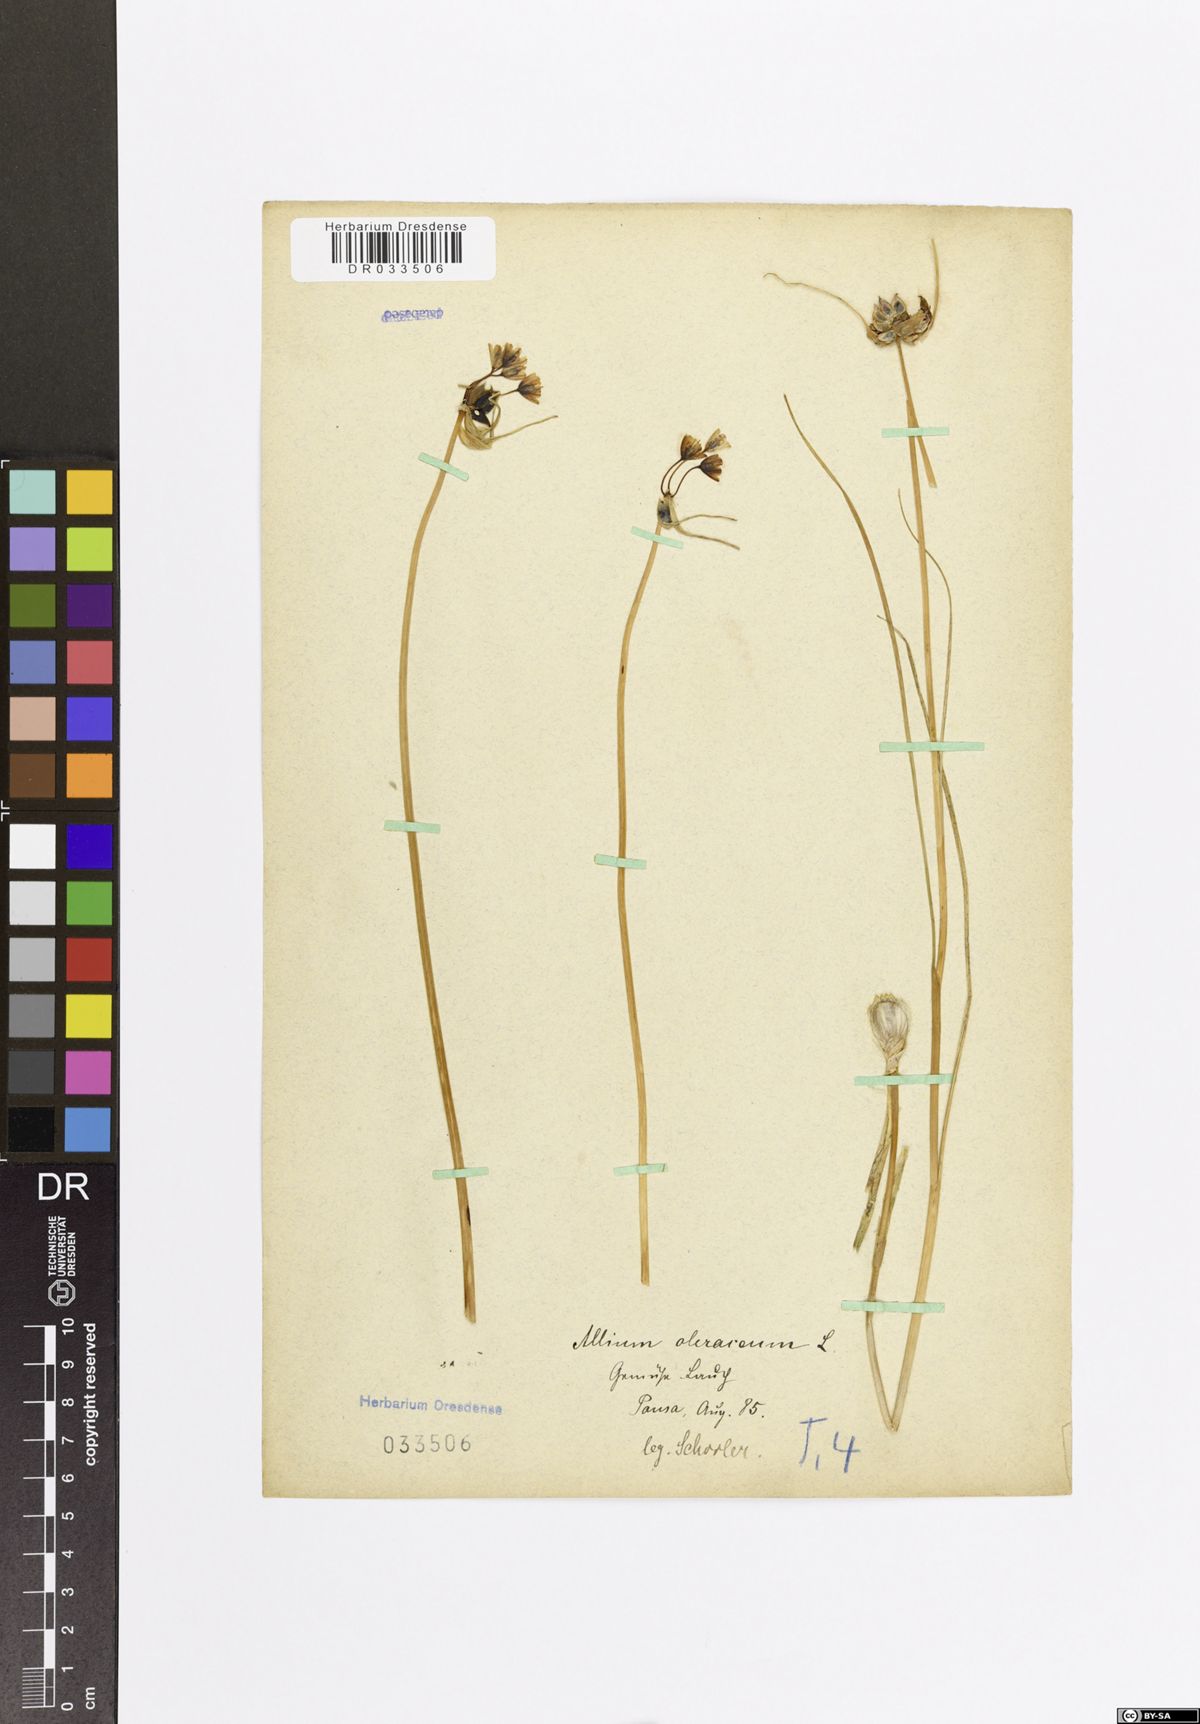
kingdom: Plantae
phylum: Tracheophyta
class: Liliopsida
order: Asparagales
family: Amaryllidaceae
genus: Allium
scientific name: Allium oleraceum
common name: Field garlic
